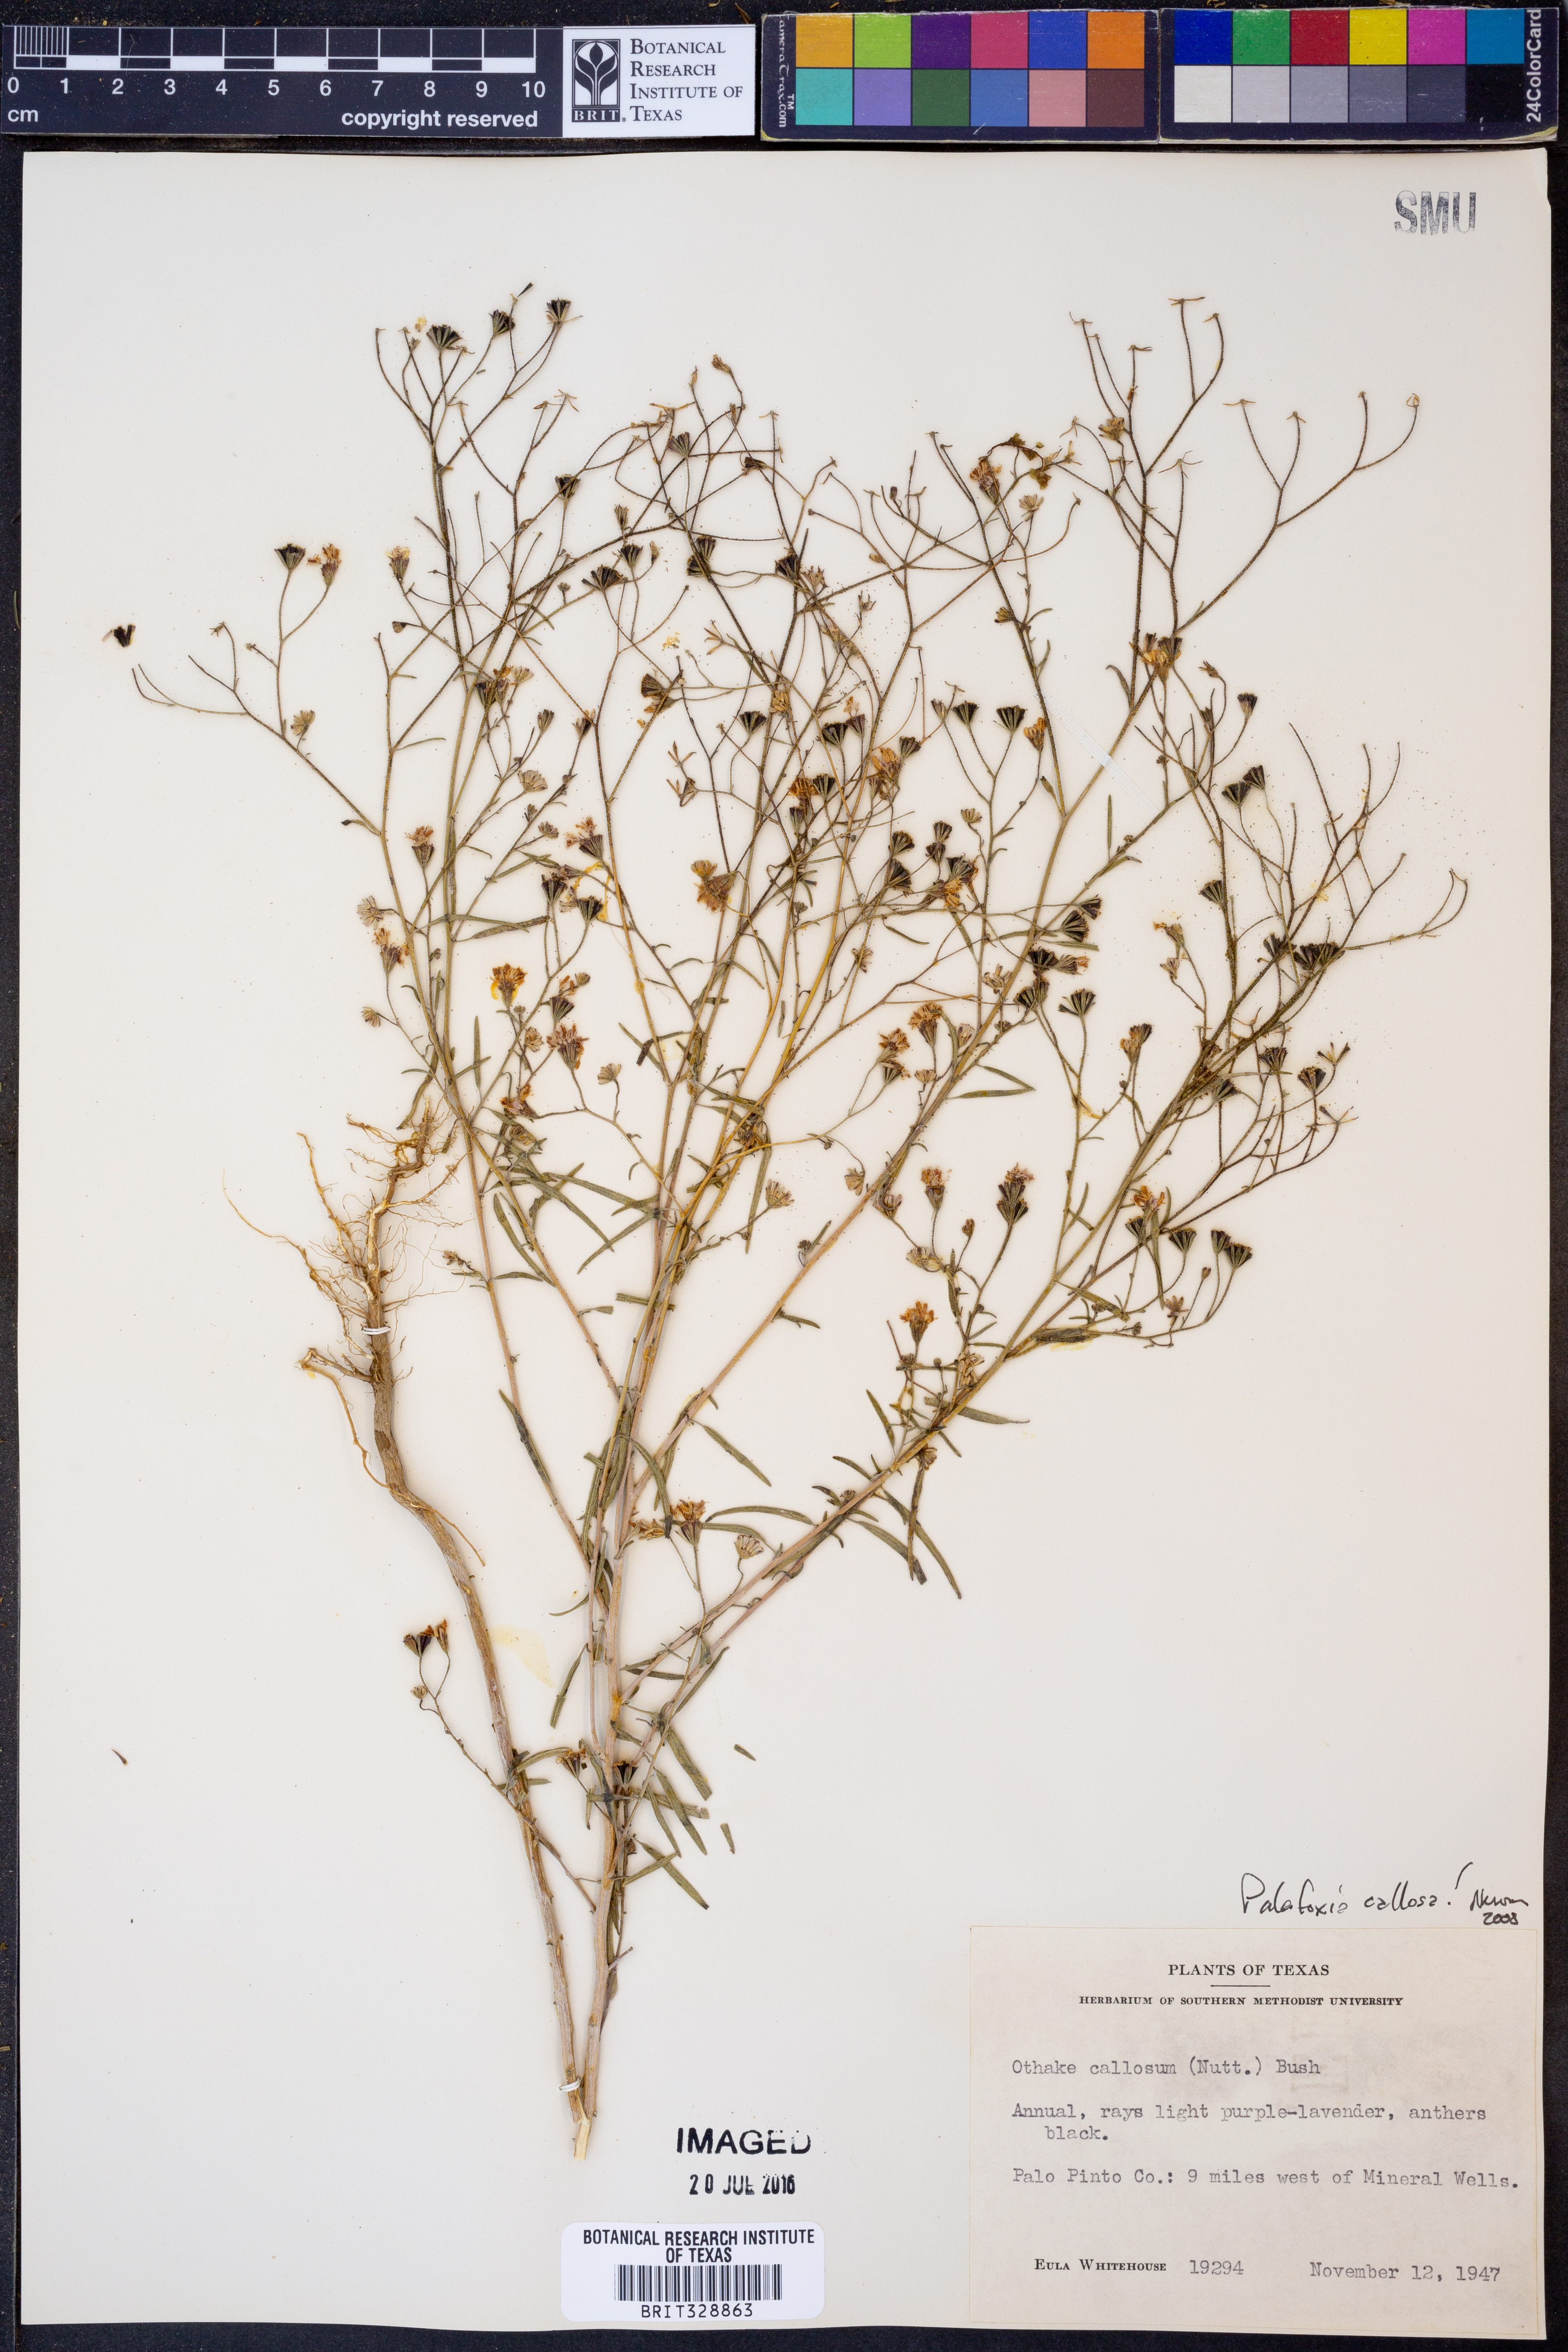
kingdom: Plantae
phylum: Tracheophyta
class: Magnoliopsida
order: Asterales
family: Asteraceae
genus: Palafoxia
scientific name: Palafoxia callosa
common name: Small palafox
